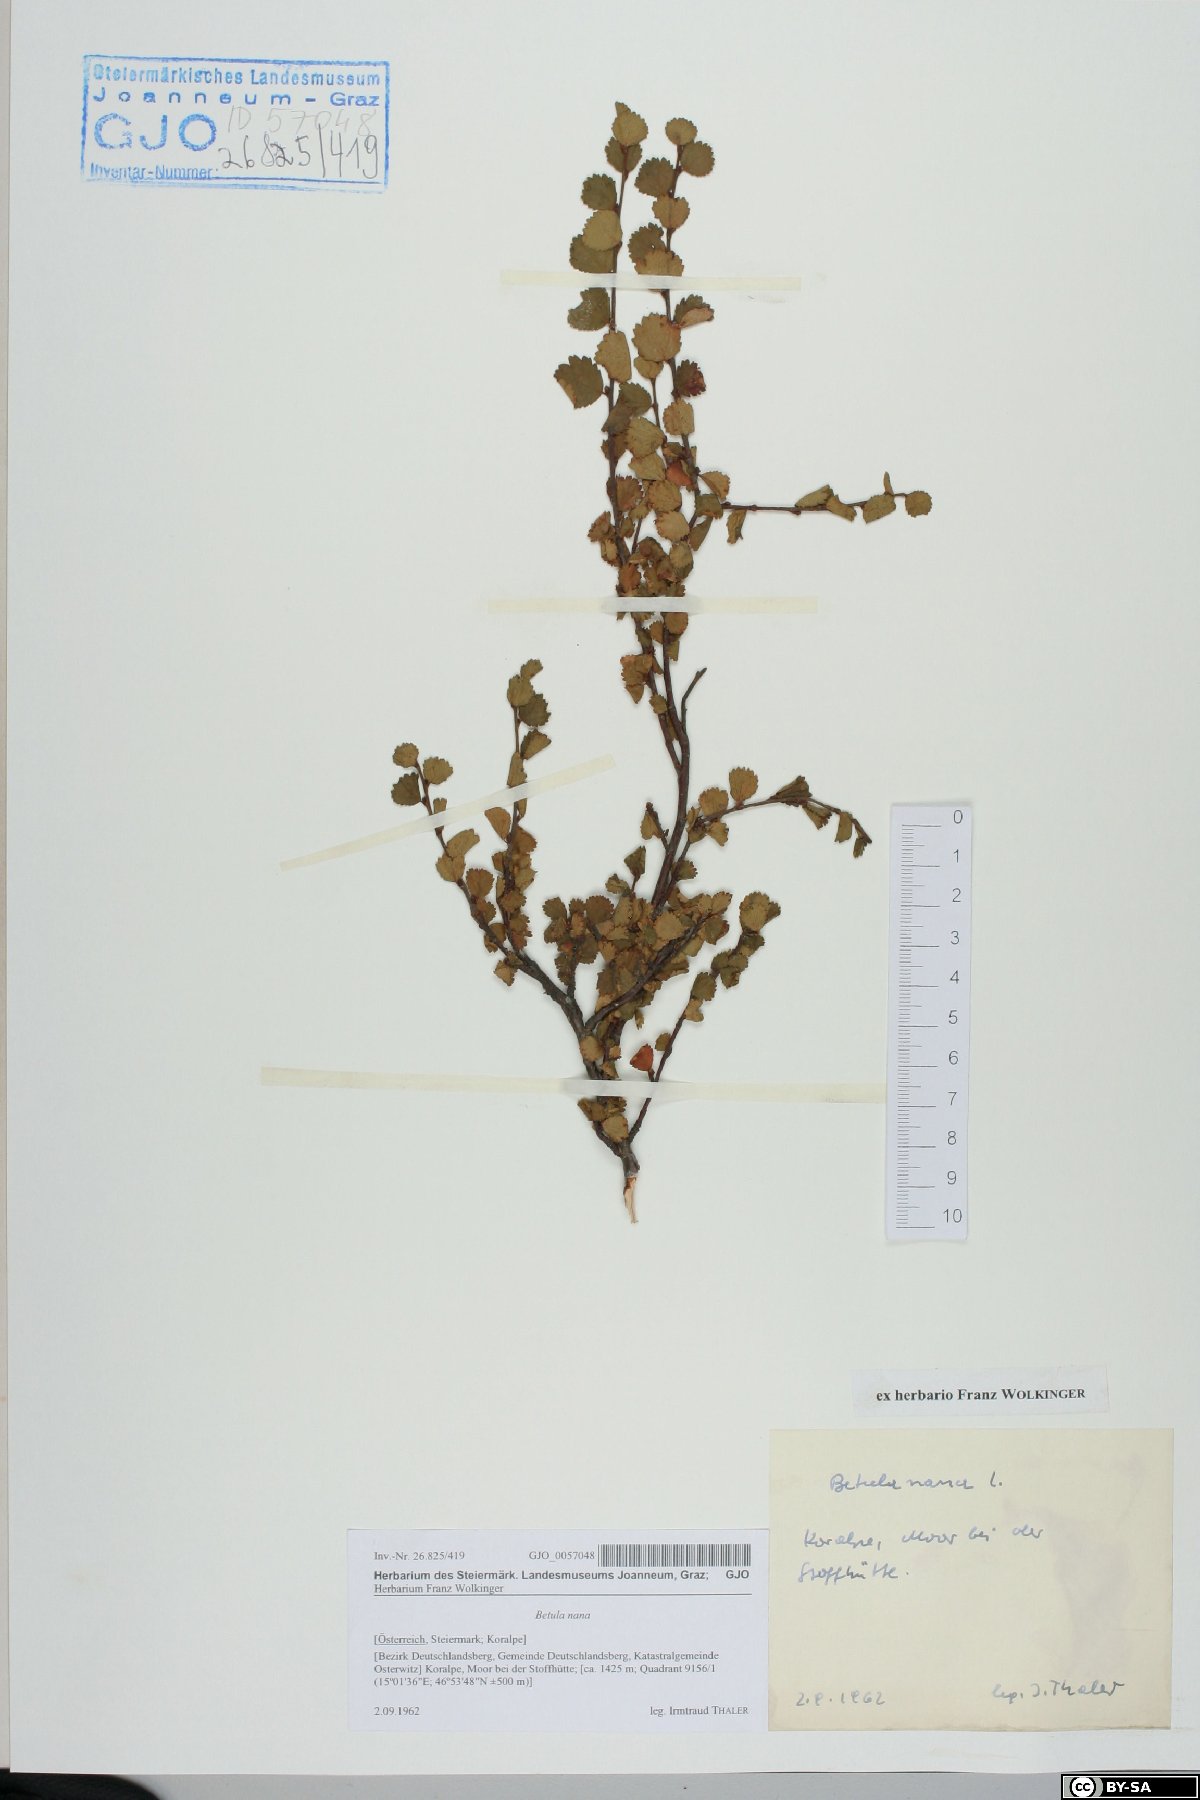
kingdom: Plantae
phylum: Tracheophyta
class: Magnoliopsida
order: Fagales
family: Betulaceae
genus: Betula
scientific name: Betula nana
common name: Arctic dwarf birch
